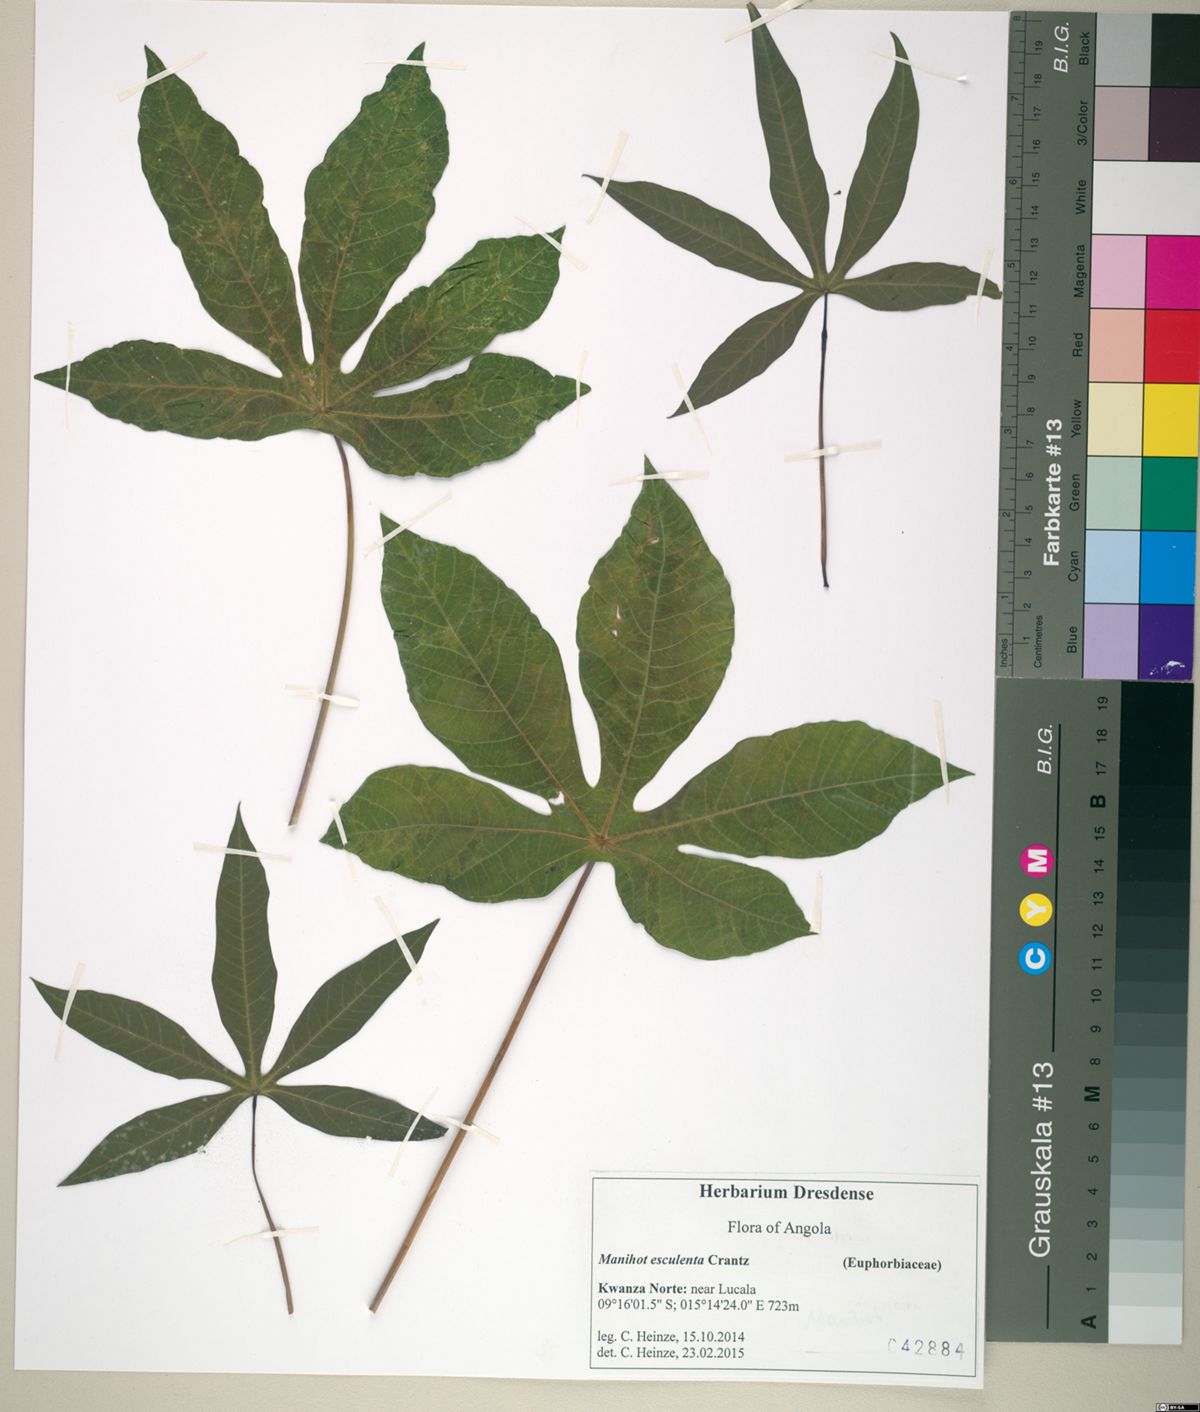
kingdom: Plantae
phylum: Tracheophyta
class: Magnoliopsida
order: Malpighiales
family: Euphorbiaceae
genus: Manihot
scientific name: Manihot esculenta
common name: Cassava
